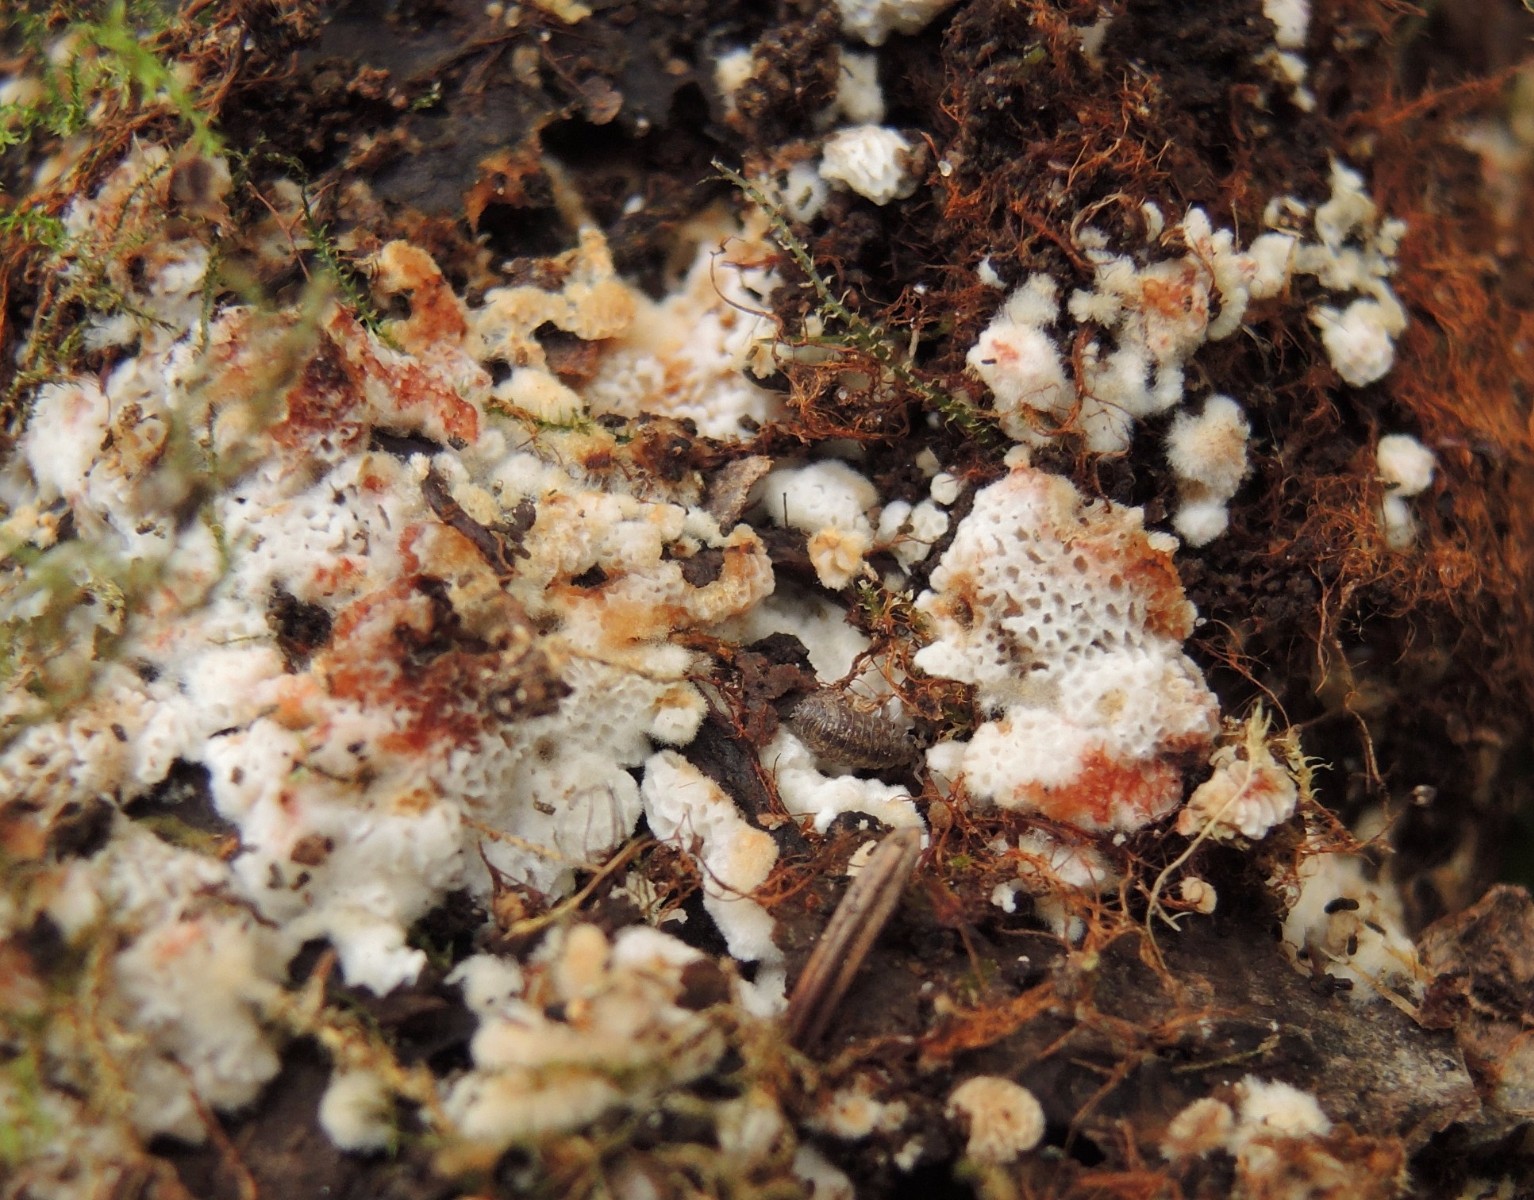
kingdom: Fungi
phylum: Basidiomycota
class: Agaricomycetes
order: Polyporales
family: Meripilaceae
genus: Rigidoporus
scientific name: Rigidoporus sanguinolentus
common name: blod-skorpeporesvamp
